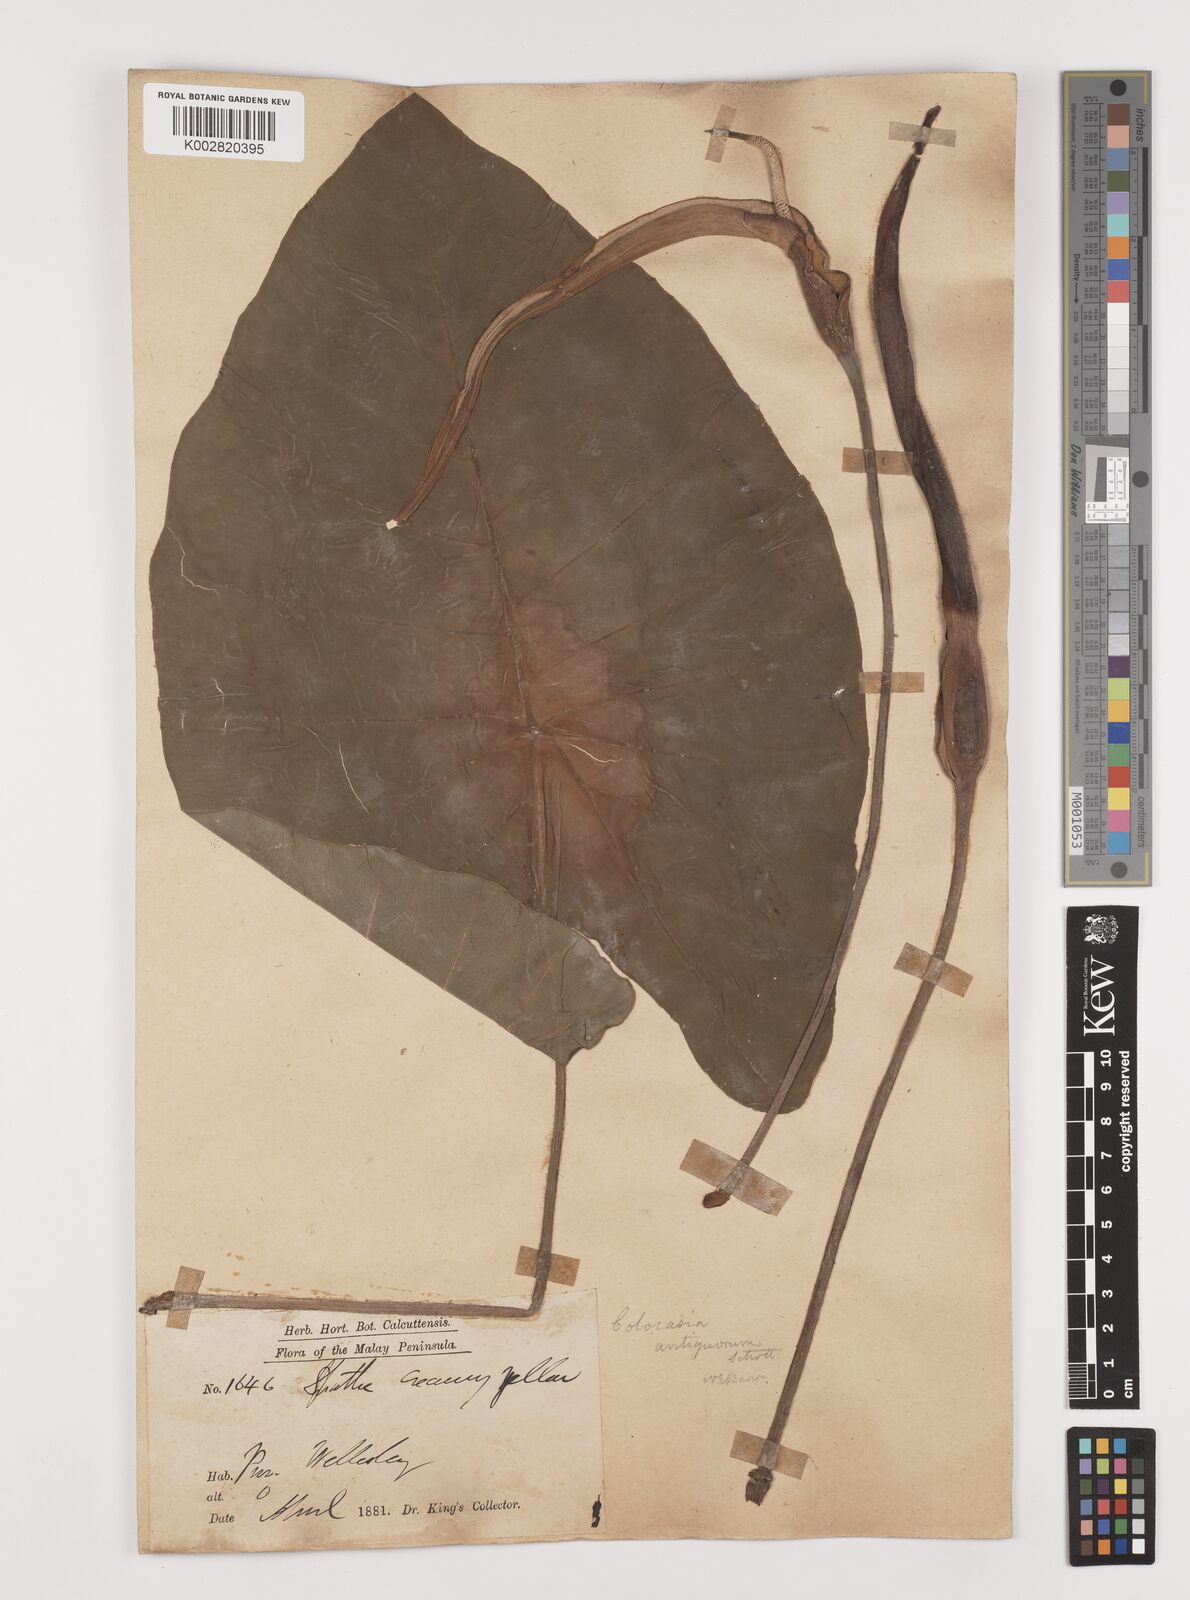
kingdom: Plantae
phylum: Tracheophyta
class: Liliopsida
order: Alismatales
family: Araceae
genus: Colocasia
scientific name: Colocasia esculenta
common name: Taro
